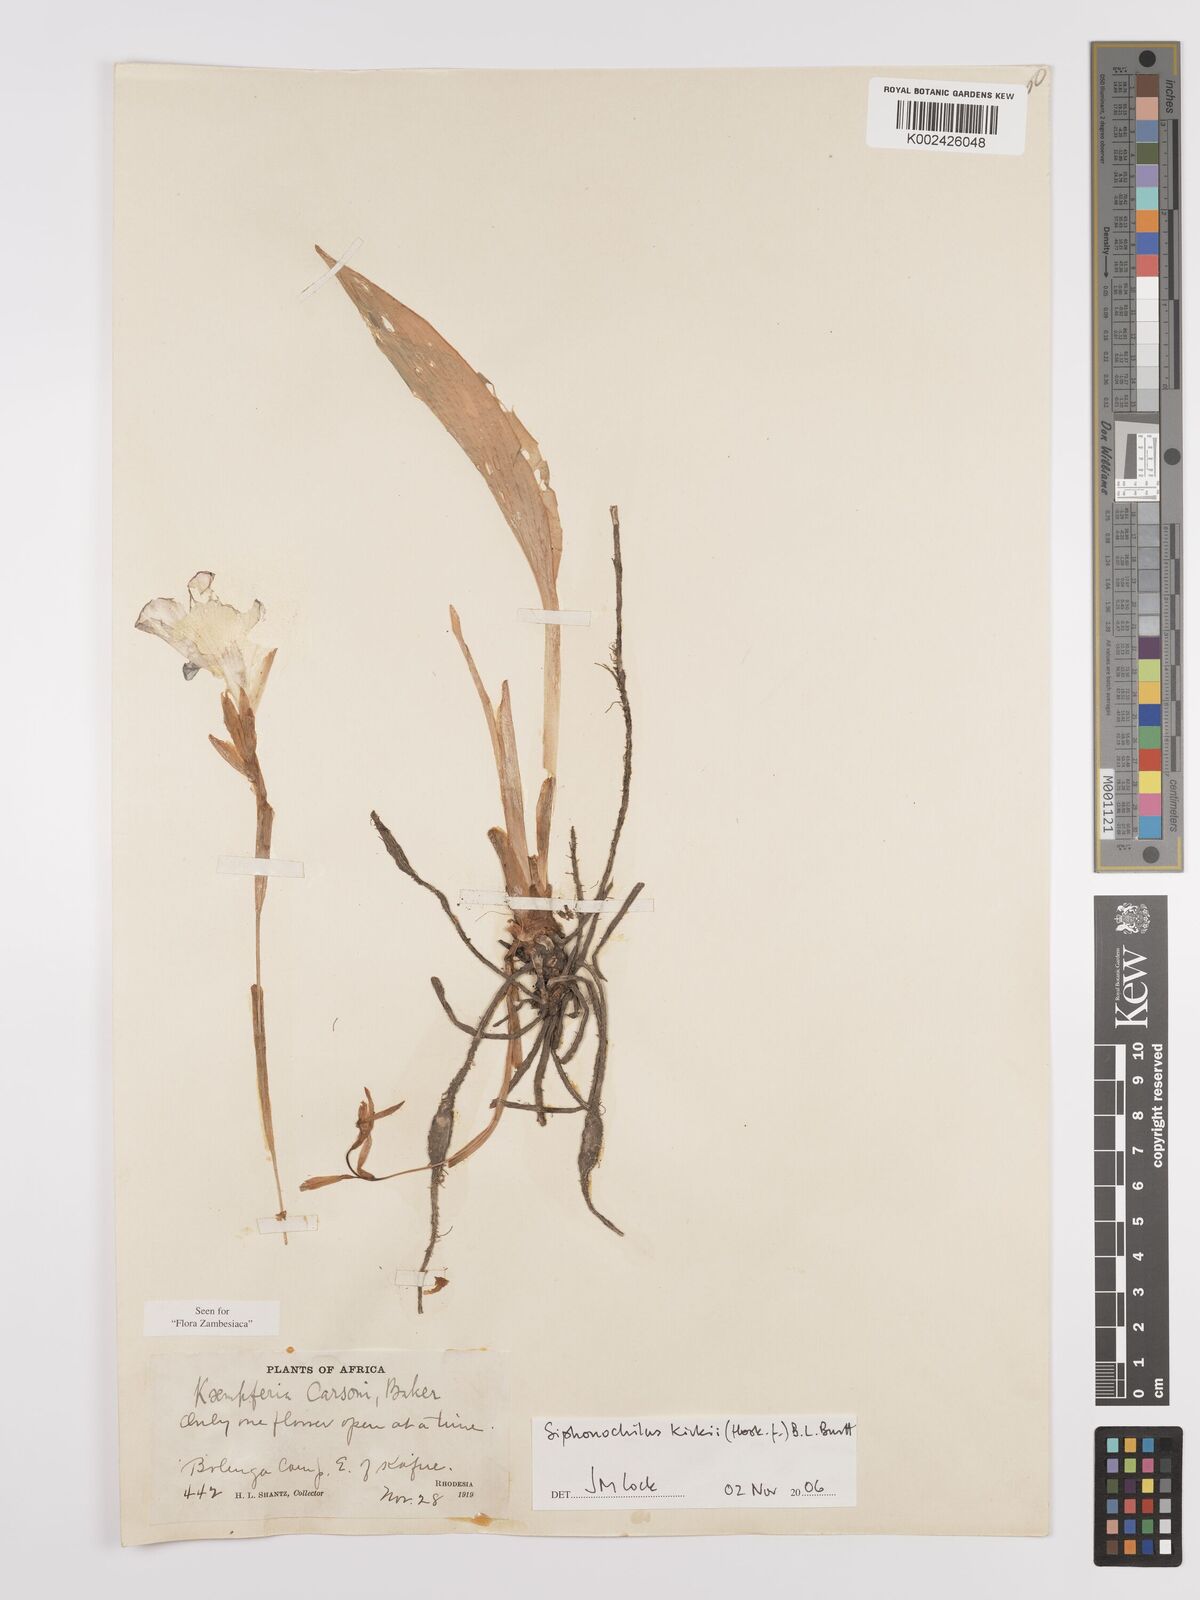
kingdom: Plantae
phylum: Tracheophyta
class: Liliopsida
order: Zingiberales
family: Zingiberaceae
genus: Siphonochilus
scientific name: Siphonochilus kirkii
